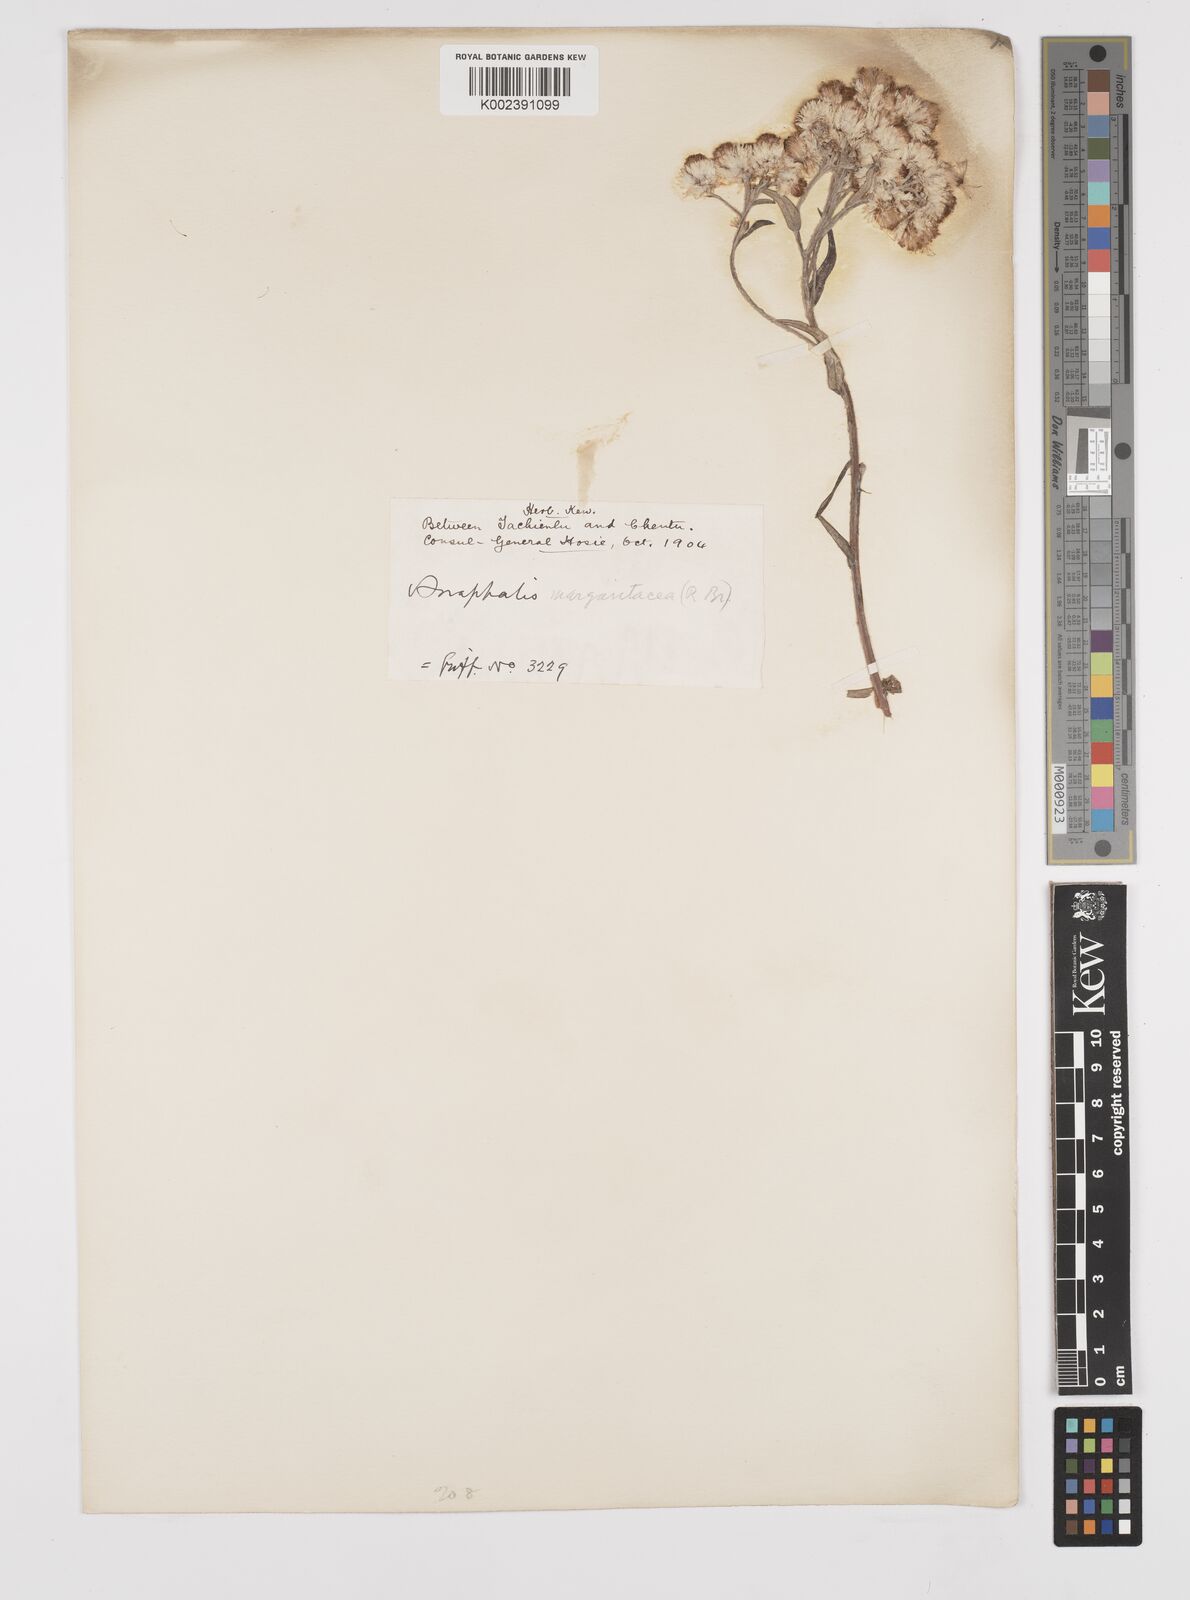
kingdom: Plantae
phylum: Tracheophyta
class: Magnoliopsida
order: Asterales
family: Asteraceae
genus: Anaphalis
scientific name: Anaphalis margaritacea
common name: Pearly everlasting
